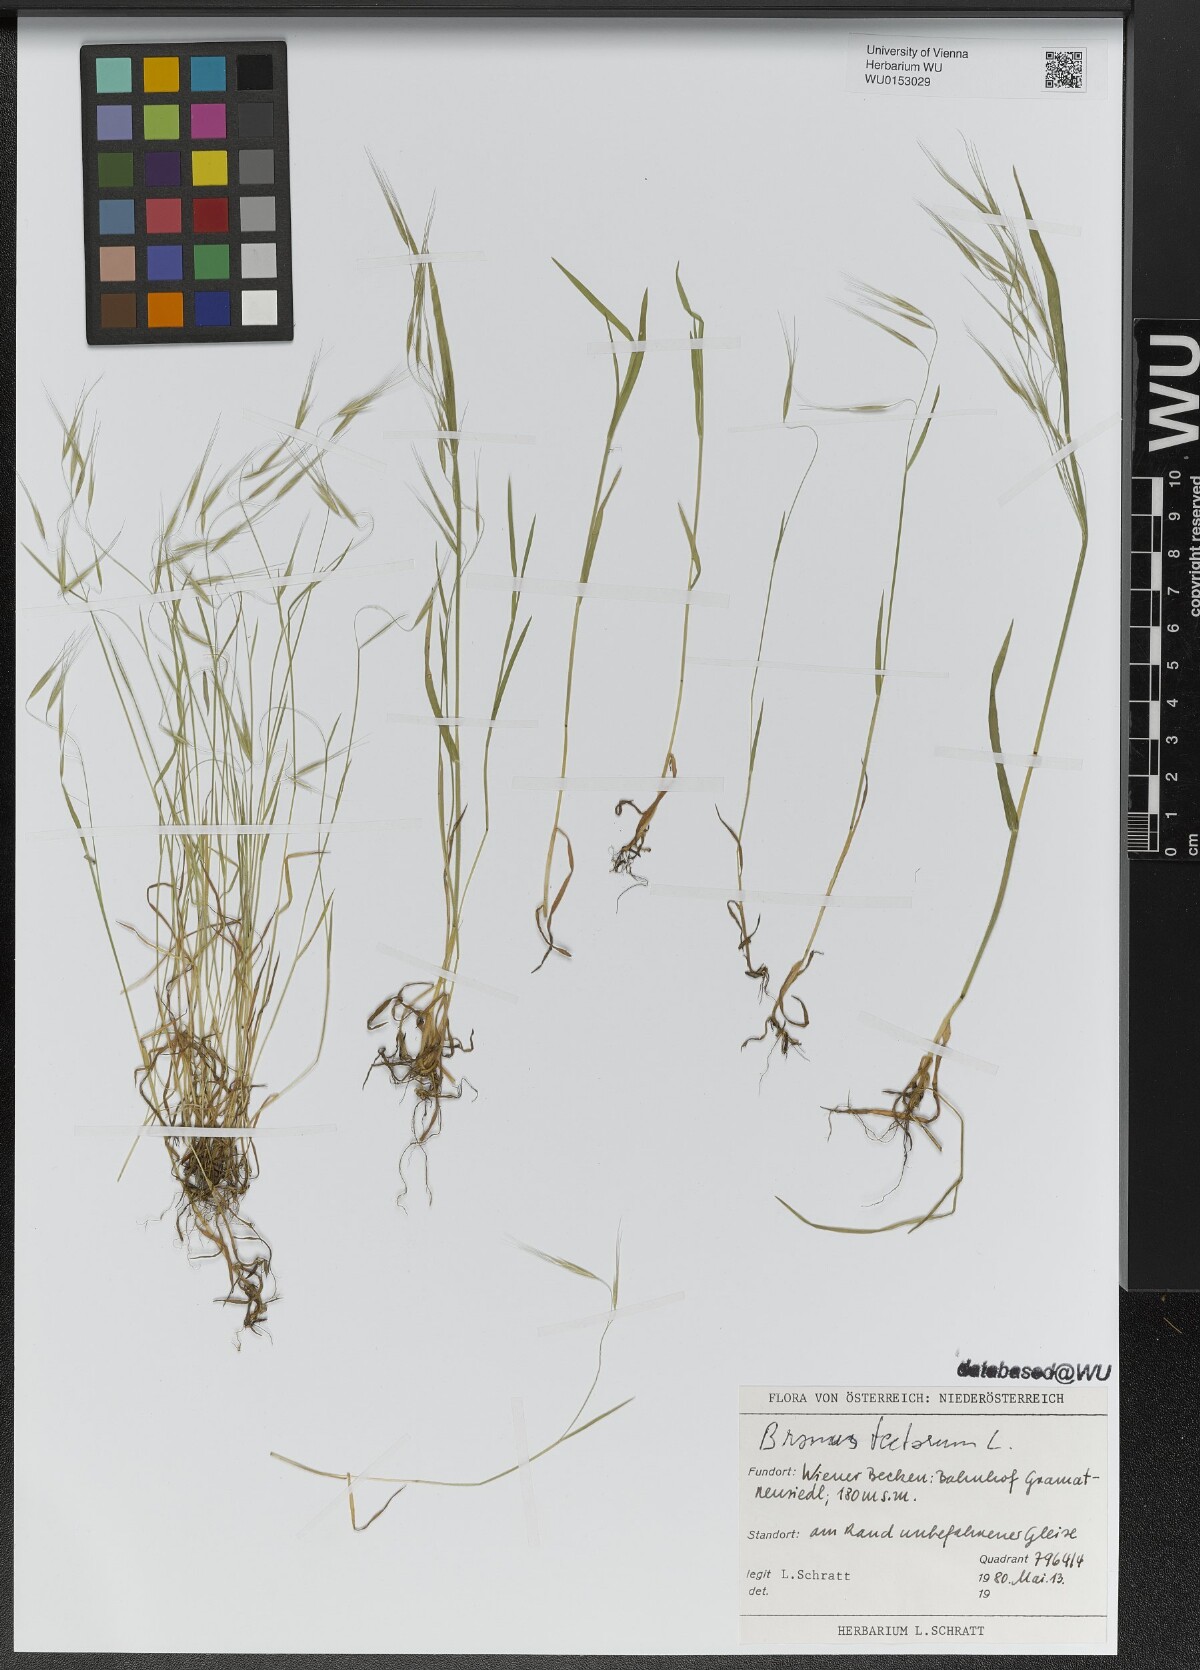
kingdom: Plantae
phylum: Tracheophyta
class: Liliopsida
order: Poales
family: Poaceae
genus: Bromus
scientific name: Bromus tectorum
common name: Cheatgrass
